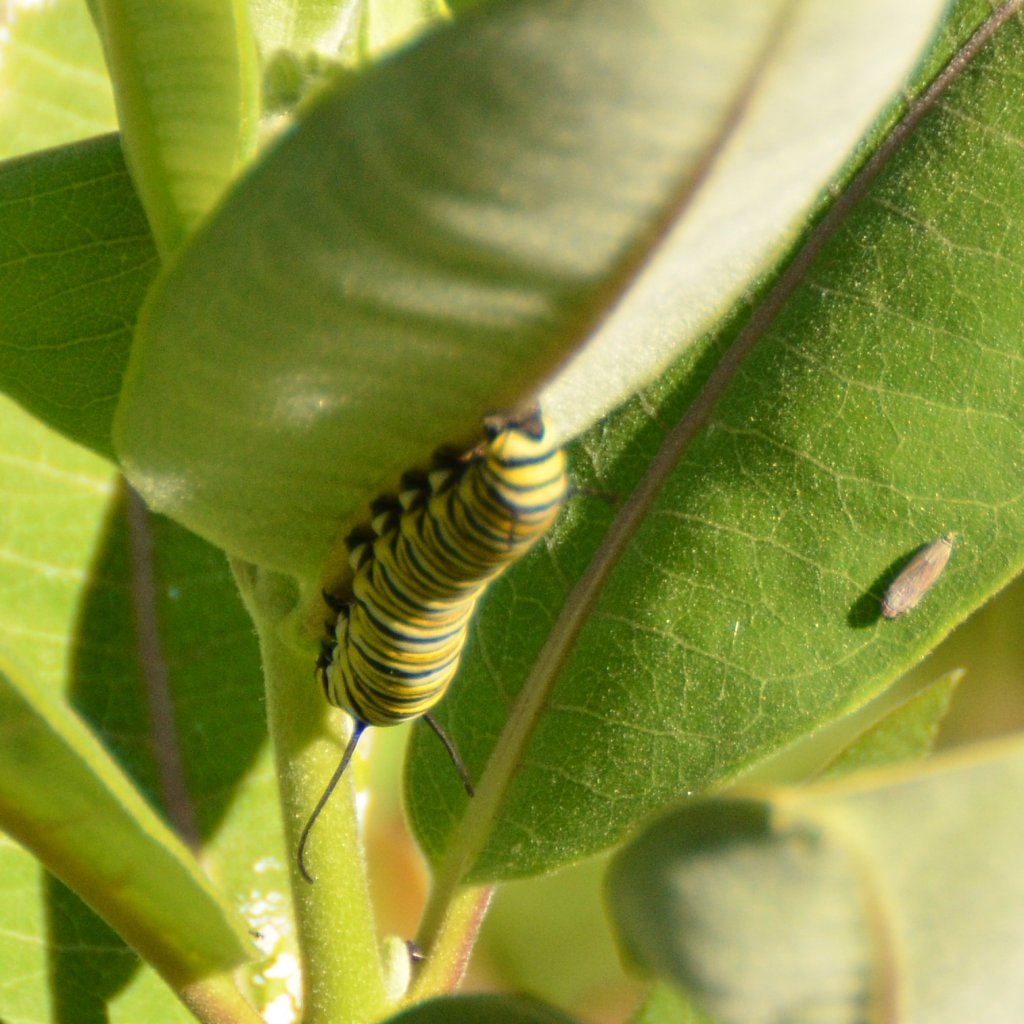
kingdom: Animalia
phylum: Arthropoda
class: Insecta
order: Lepidoptera
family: Nymphalidae
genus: Danaus
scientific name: Danaus plexippus
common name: Monarch
